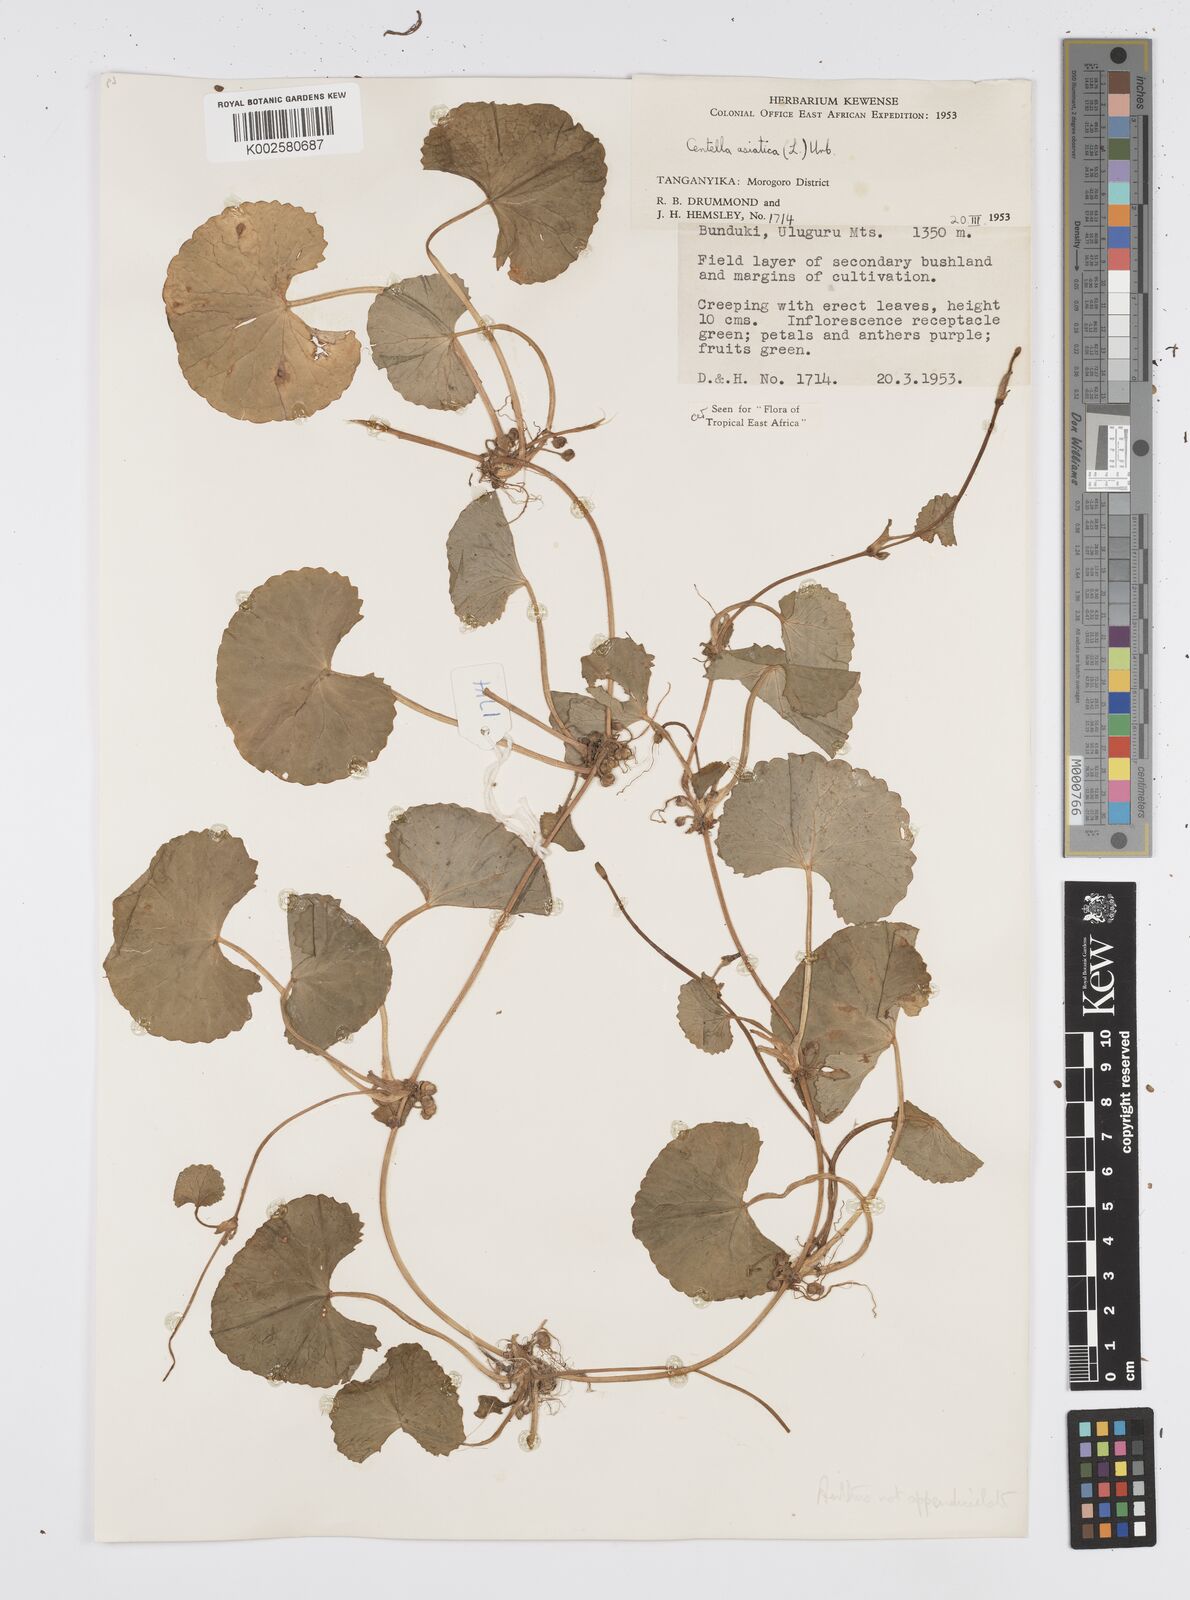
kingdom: Plantae
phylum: Tracheophyta
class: Magnoliopsida
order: Apiales
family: Apiaceae
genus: Centella
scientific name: Centella asiatica
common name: Spadeleaf
